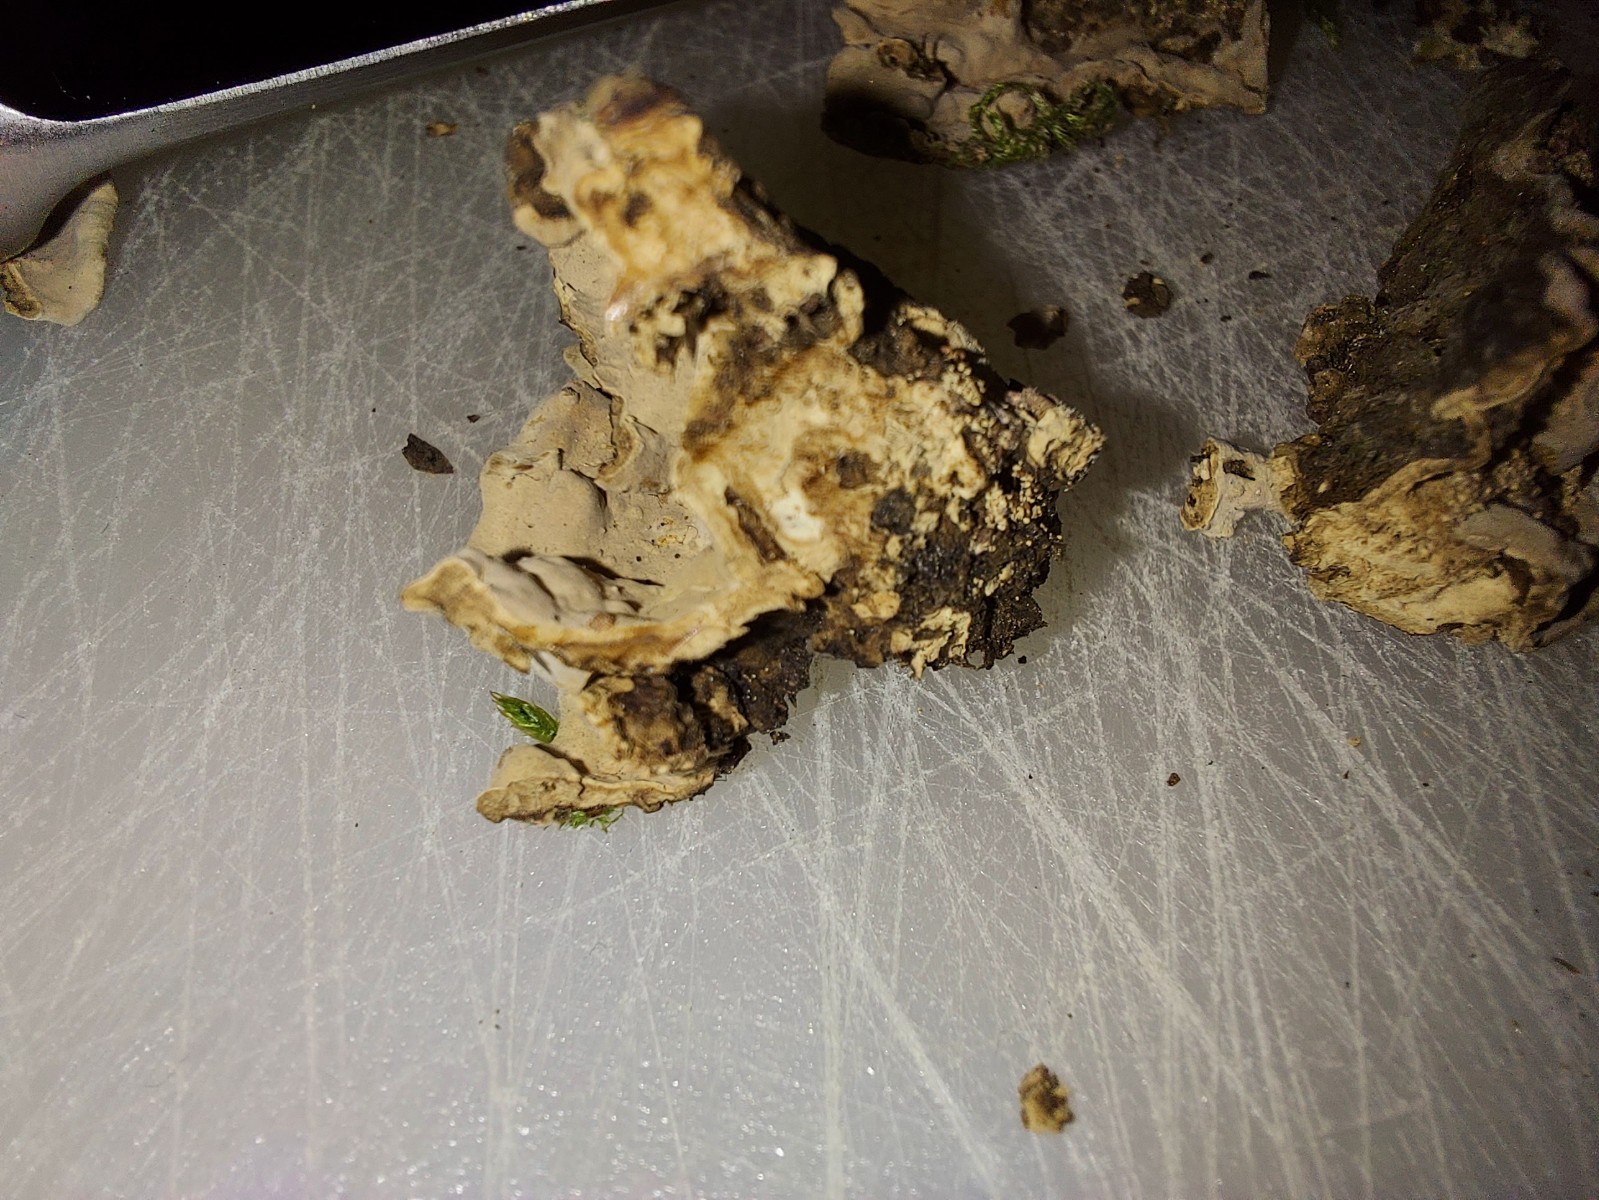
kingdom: Fungi
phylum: Basidiomycota
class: Agaricomycetes
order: Russulales
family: Echinodontiaceae
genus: Amylostereum
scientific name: Amylostereum areolatum
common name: brunviolet lædersvamp
